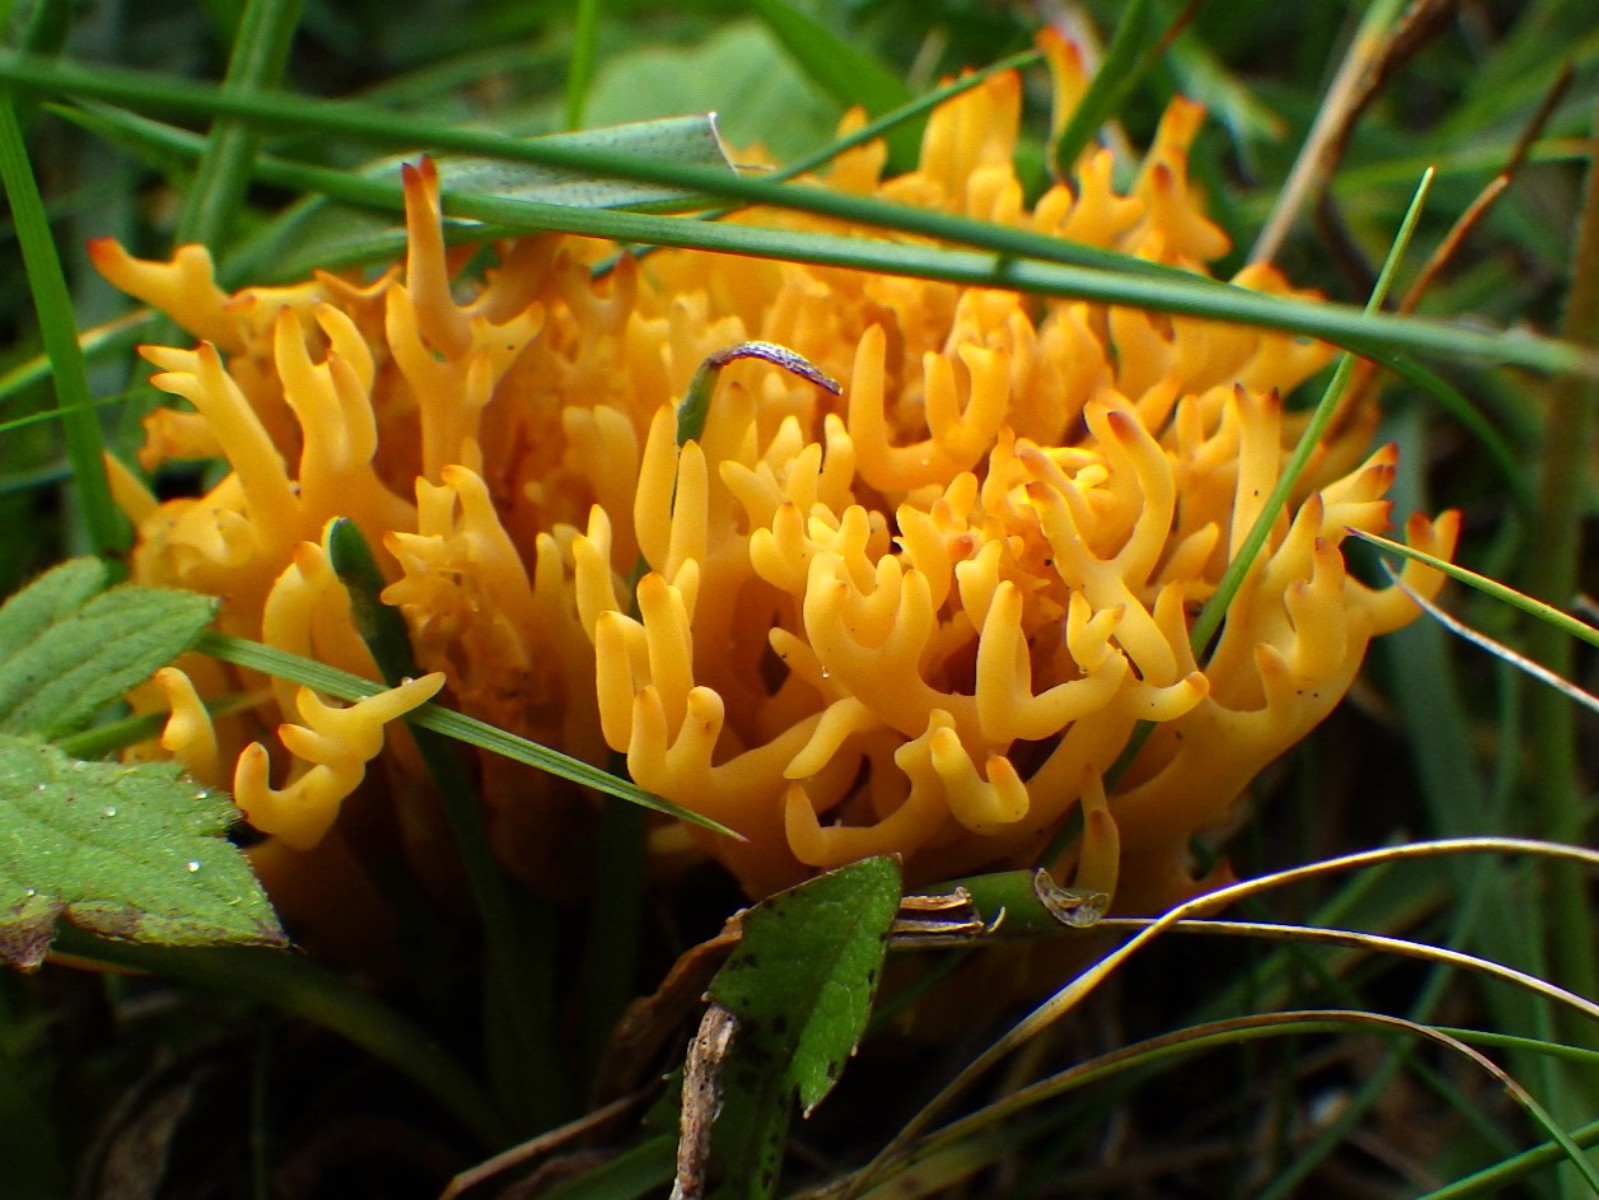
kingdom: Fungi
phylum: Basidiomycota
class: Agaricomycetes
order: Agaricales
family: Clavariaceae
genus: Clavulinopsis
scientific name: Clavulinopsis corniculata
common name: eng-køllesvamp
